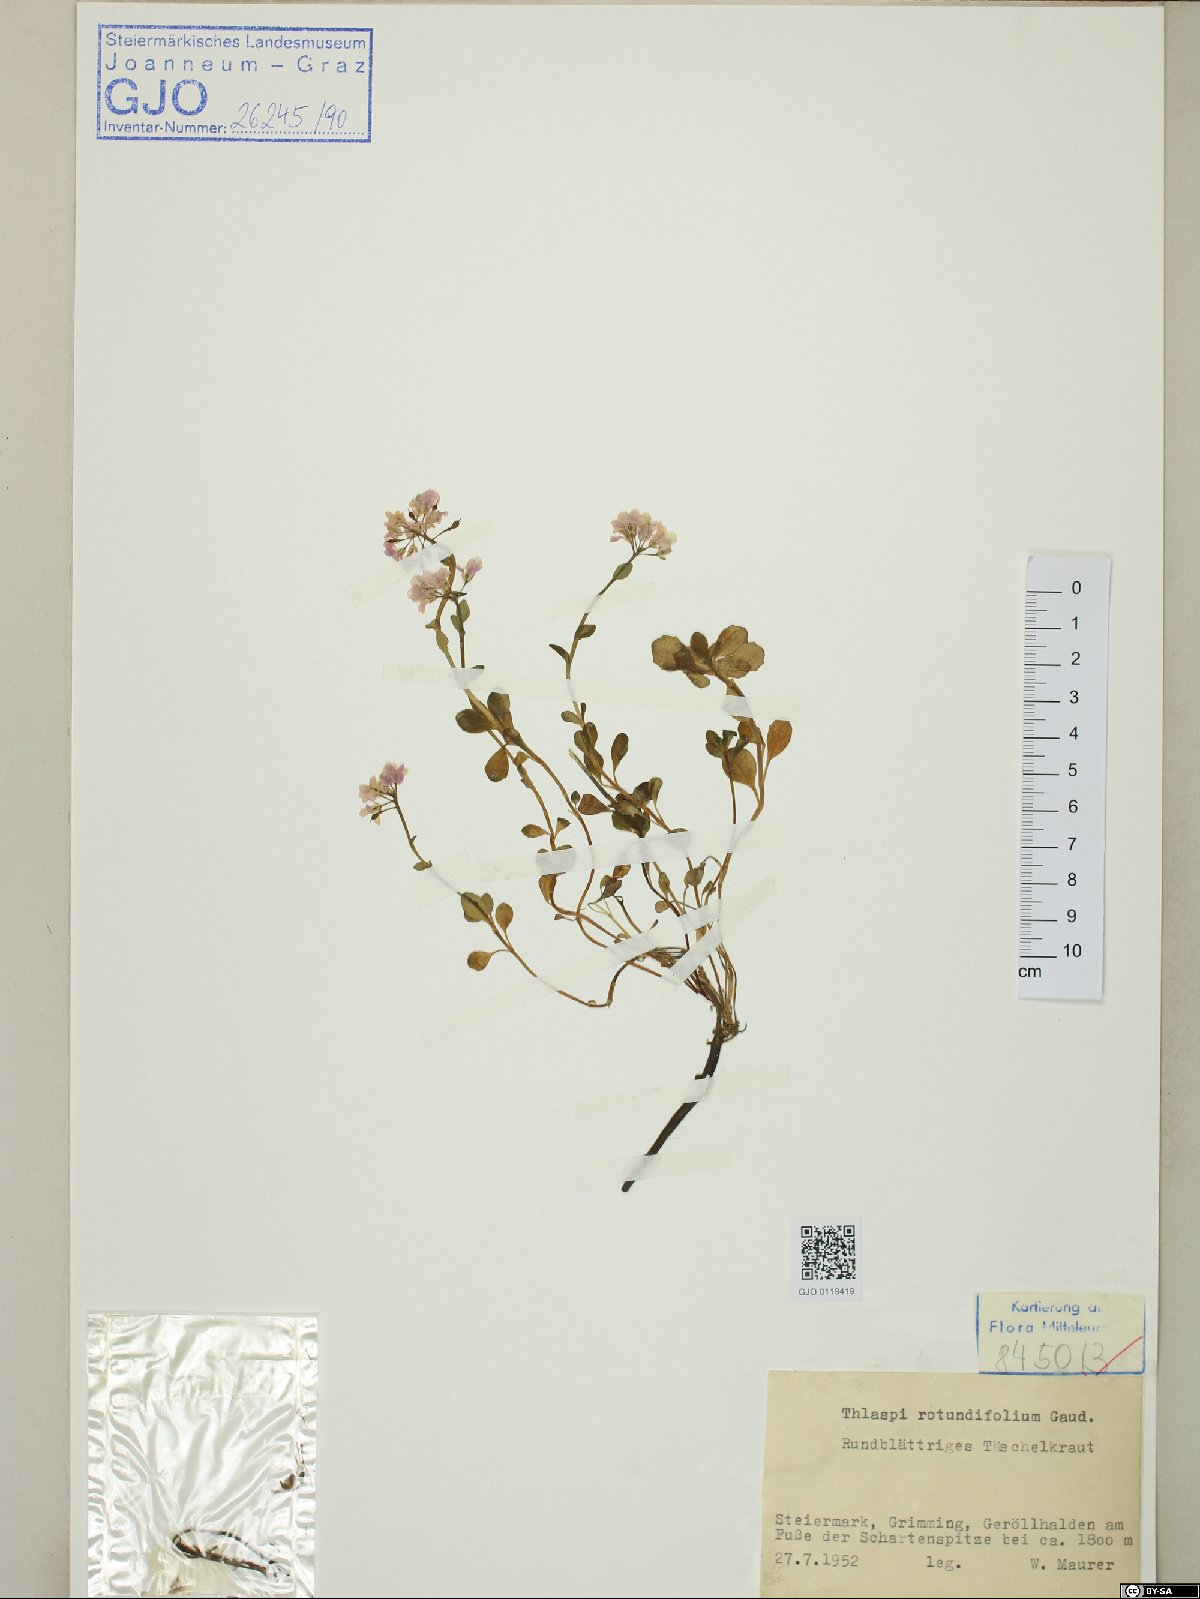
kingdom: Plantae
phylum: Tracheophyta
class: Magnoliopsida
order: Brassicales
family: Brassicaceae
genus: Noccaea
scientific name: Noccaea rotundifolia
